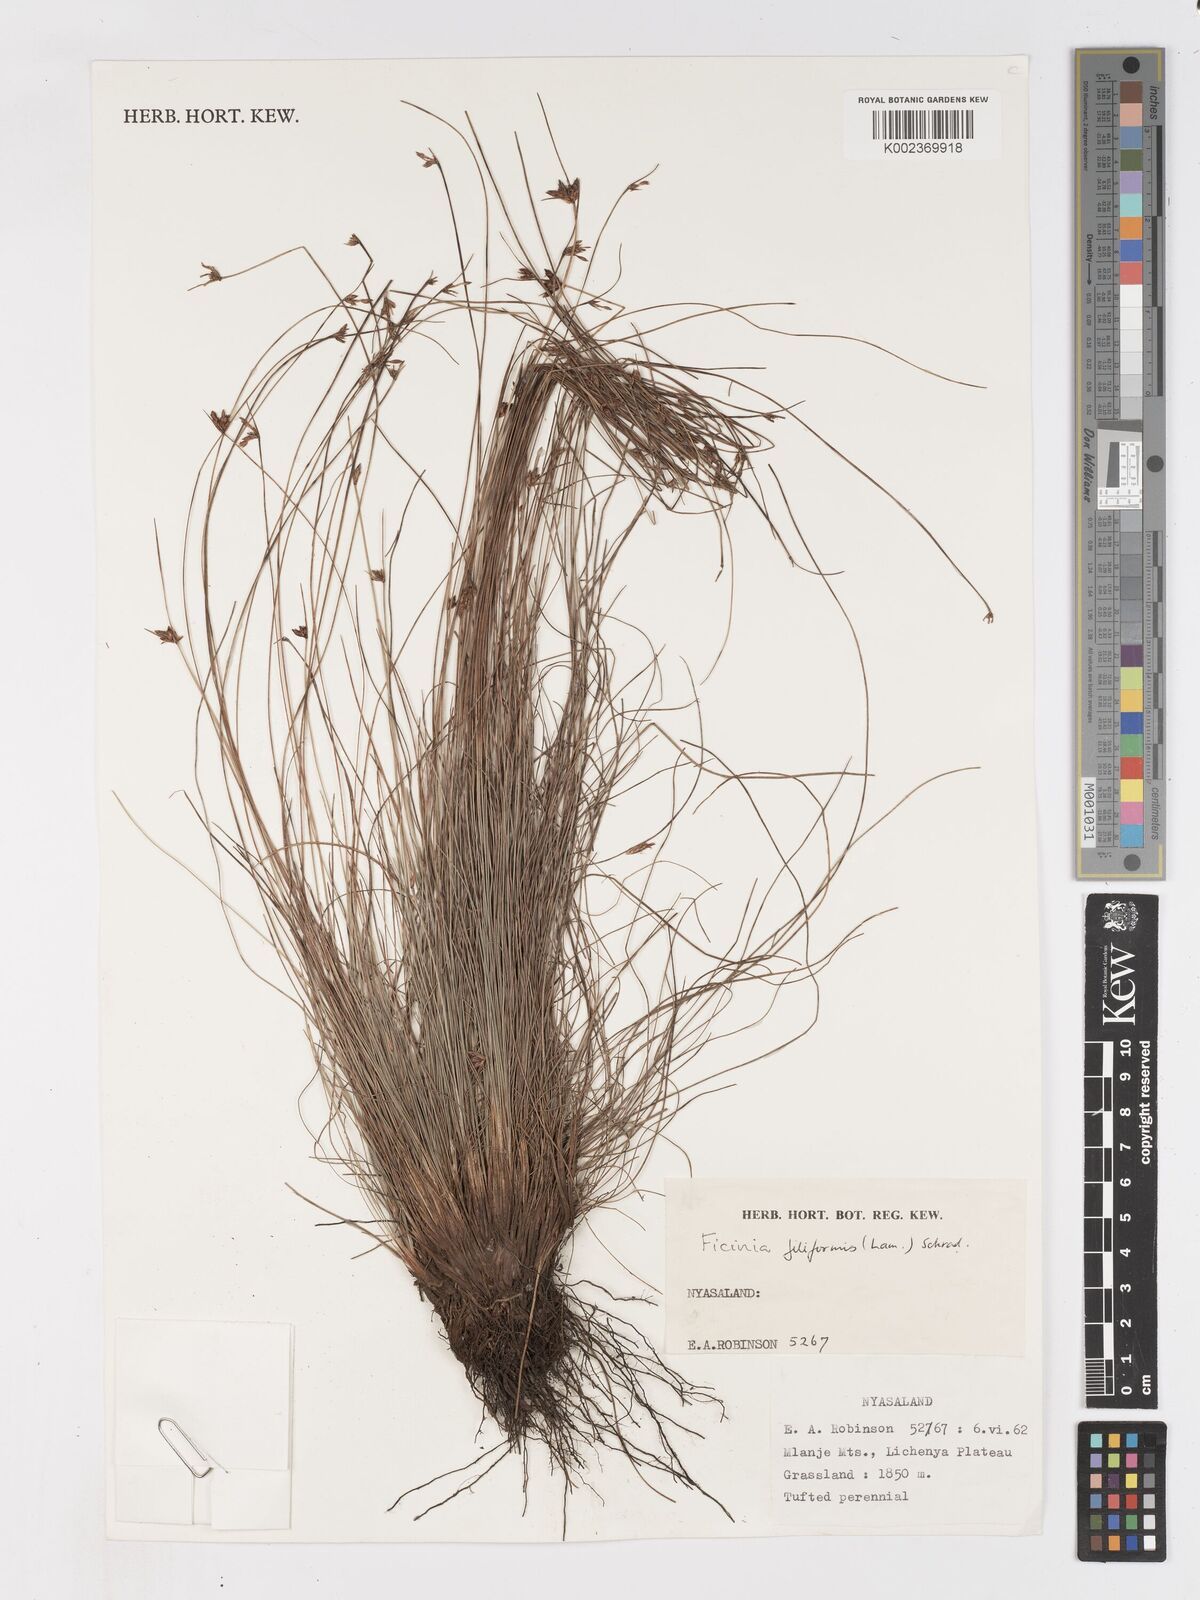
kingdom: Plantae
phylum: Tracheophyta
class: Liliopsida
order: Poales
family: Cyperaceae
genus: Ficinia
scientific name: Ficinia filiformis
